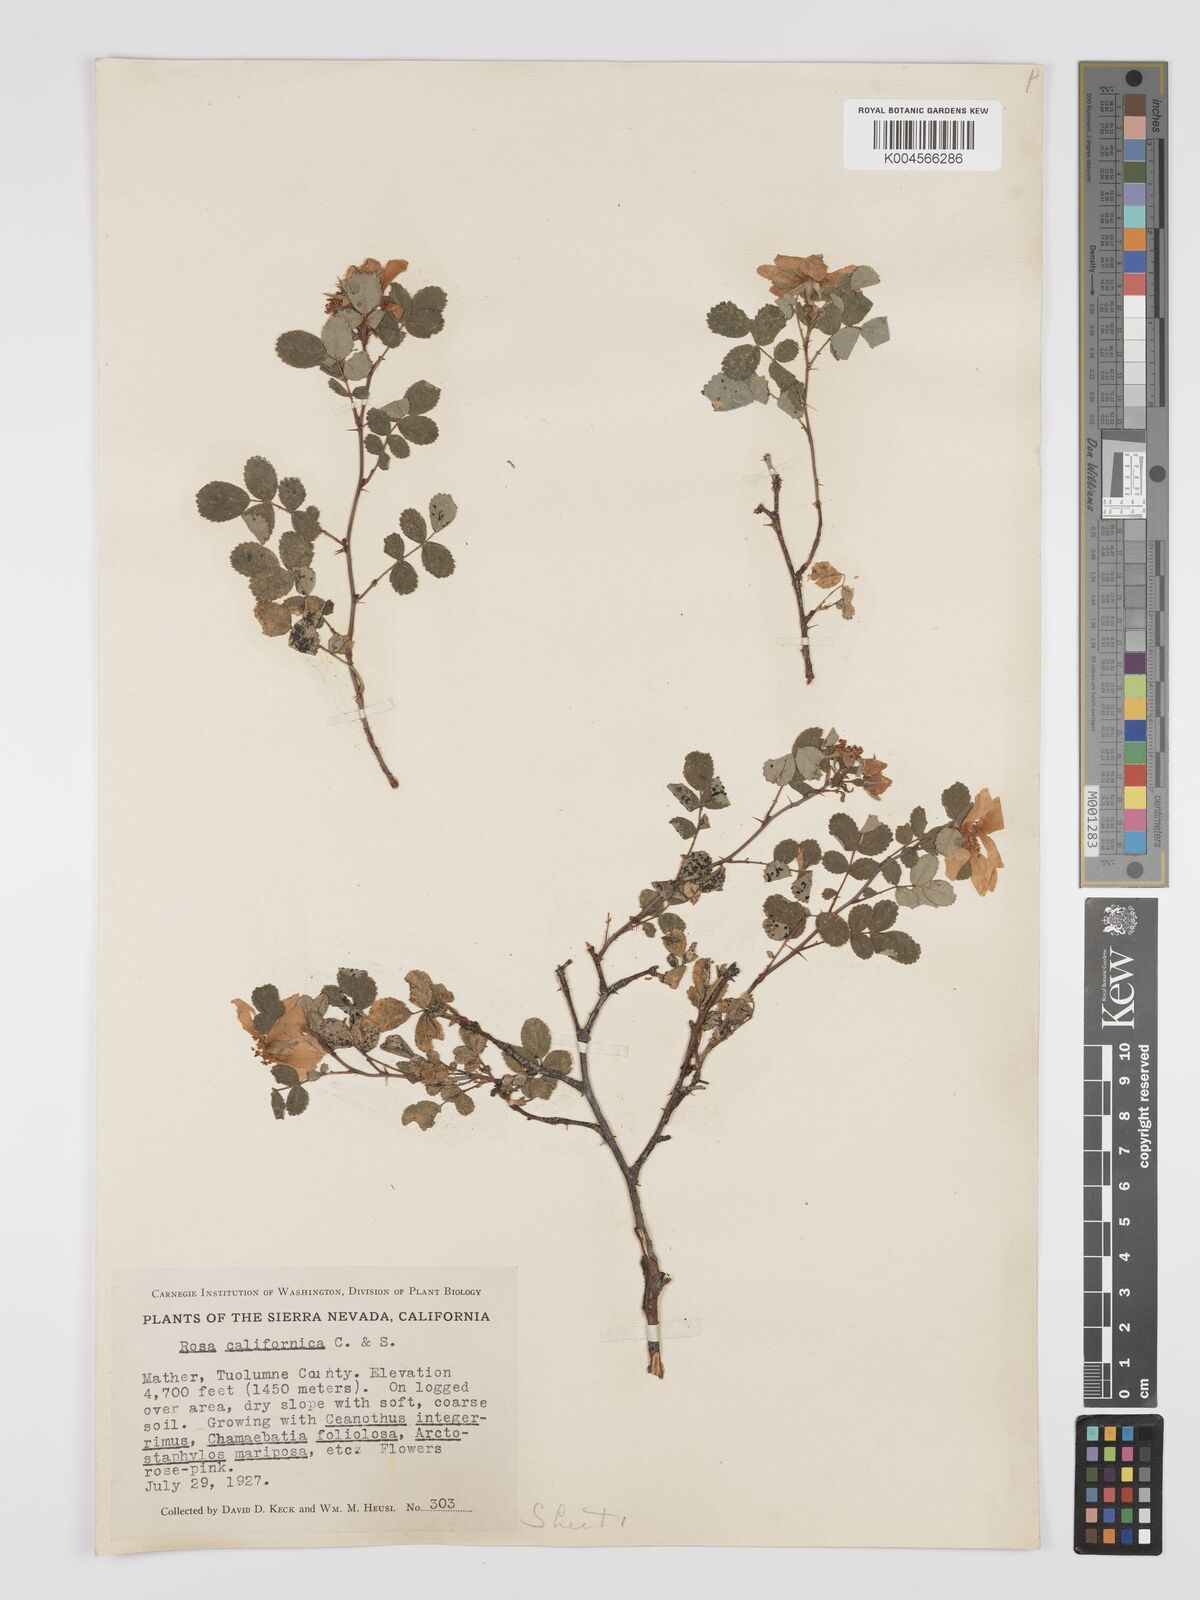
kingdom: Plantae
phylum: Tracheophyta
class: Magnoliopsida
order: Rosales
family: Rosaceae
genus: Rosa
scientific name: Rosa bridgesii
